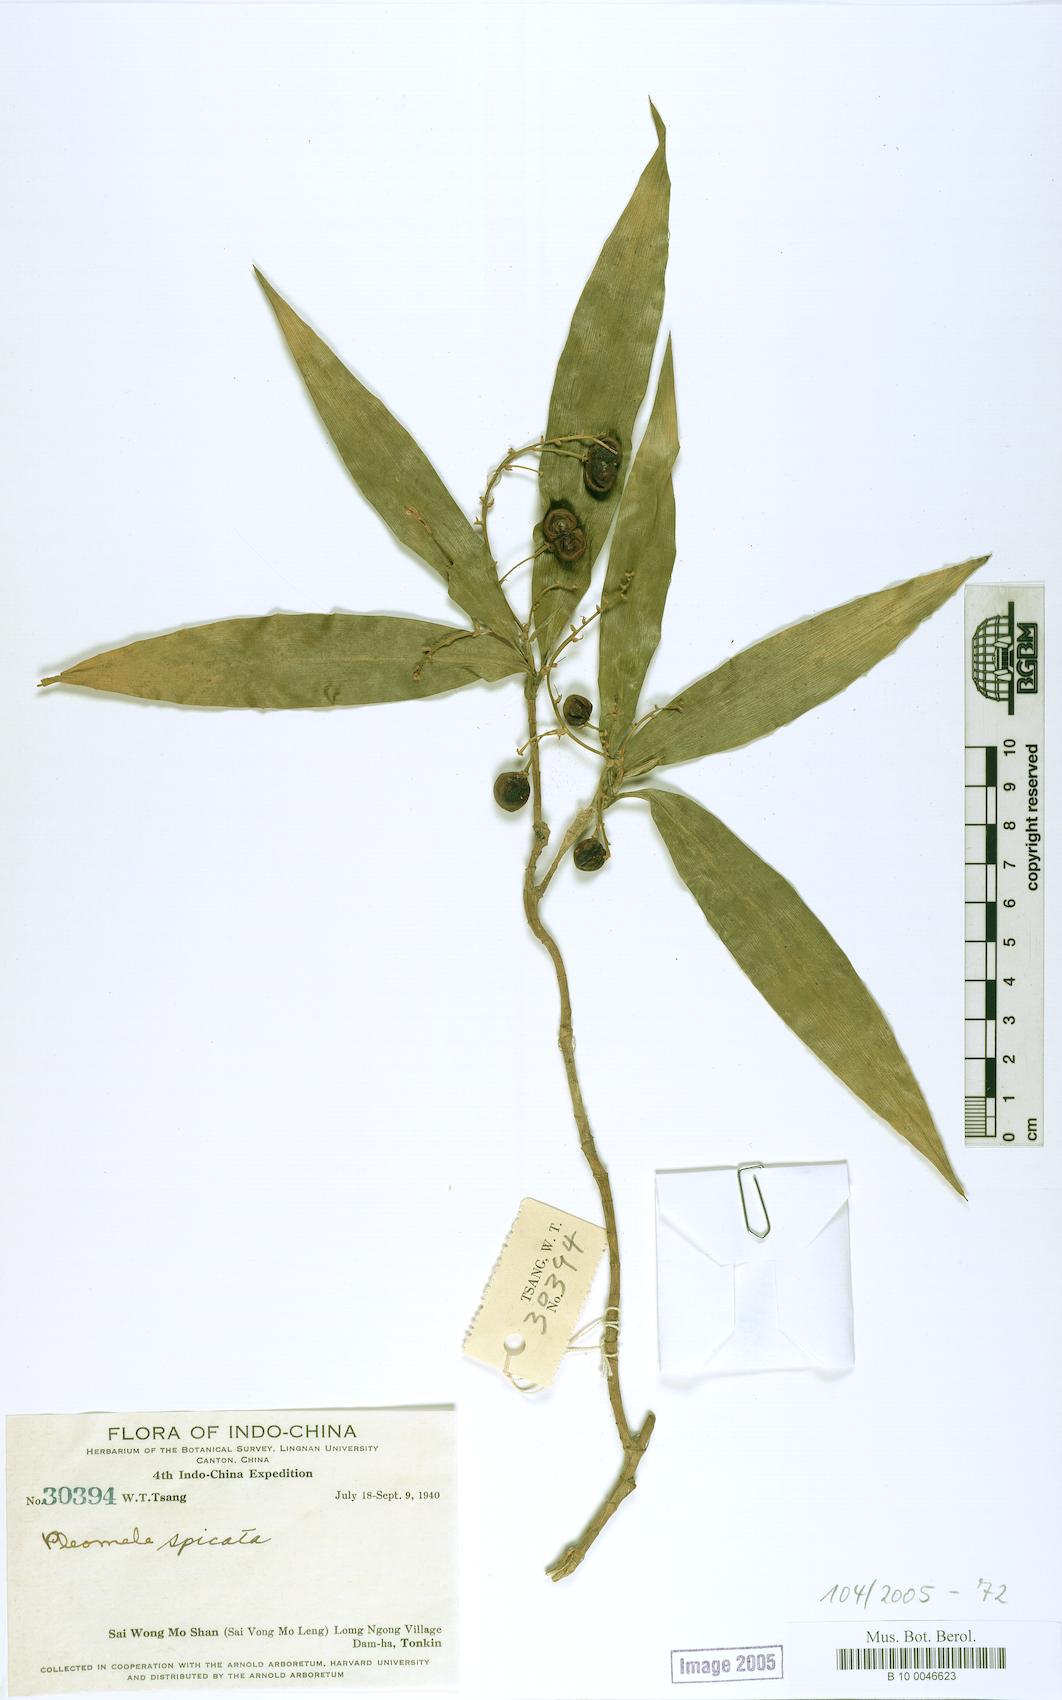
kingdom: Plantae
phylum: Tracheophyta
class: Liliopsida
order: Asparagales
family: Asparagaceae
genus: Dracaena
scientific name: Dracaena spicata
